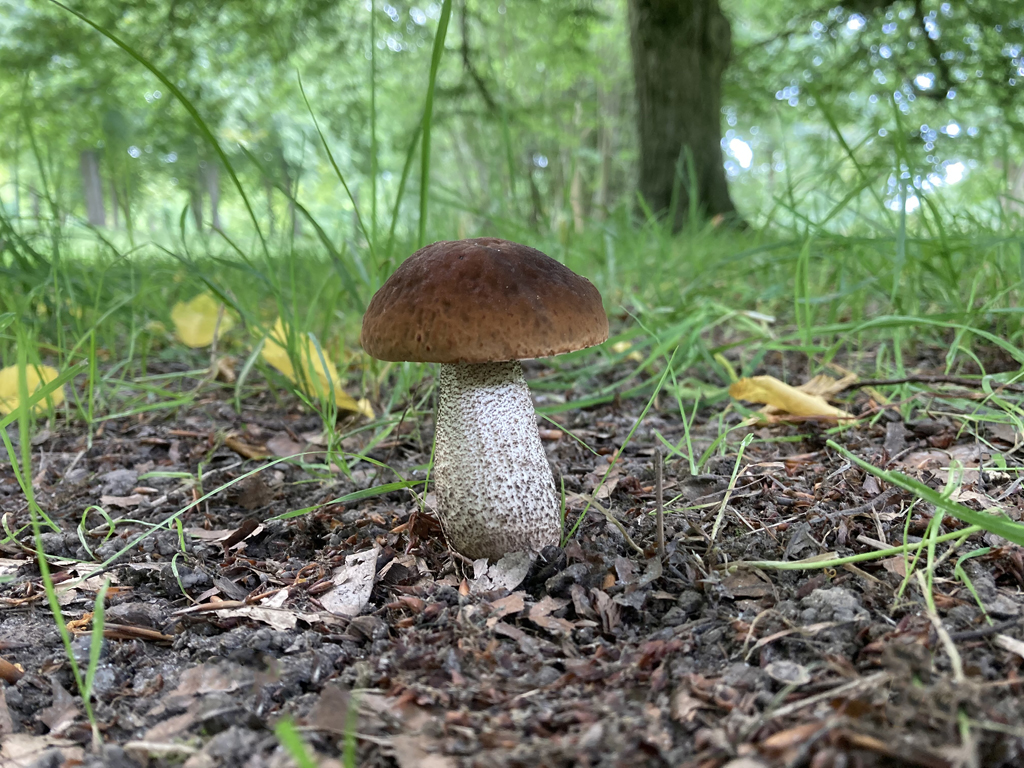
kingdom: Fungi
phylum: Basidiomycota
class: Agaricomycetes
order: Boletales
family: Boletaceae
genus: Leccinellum
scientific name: Leccinellum pseudoscabrum
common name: avnbøg-skælrørhat
